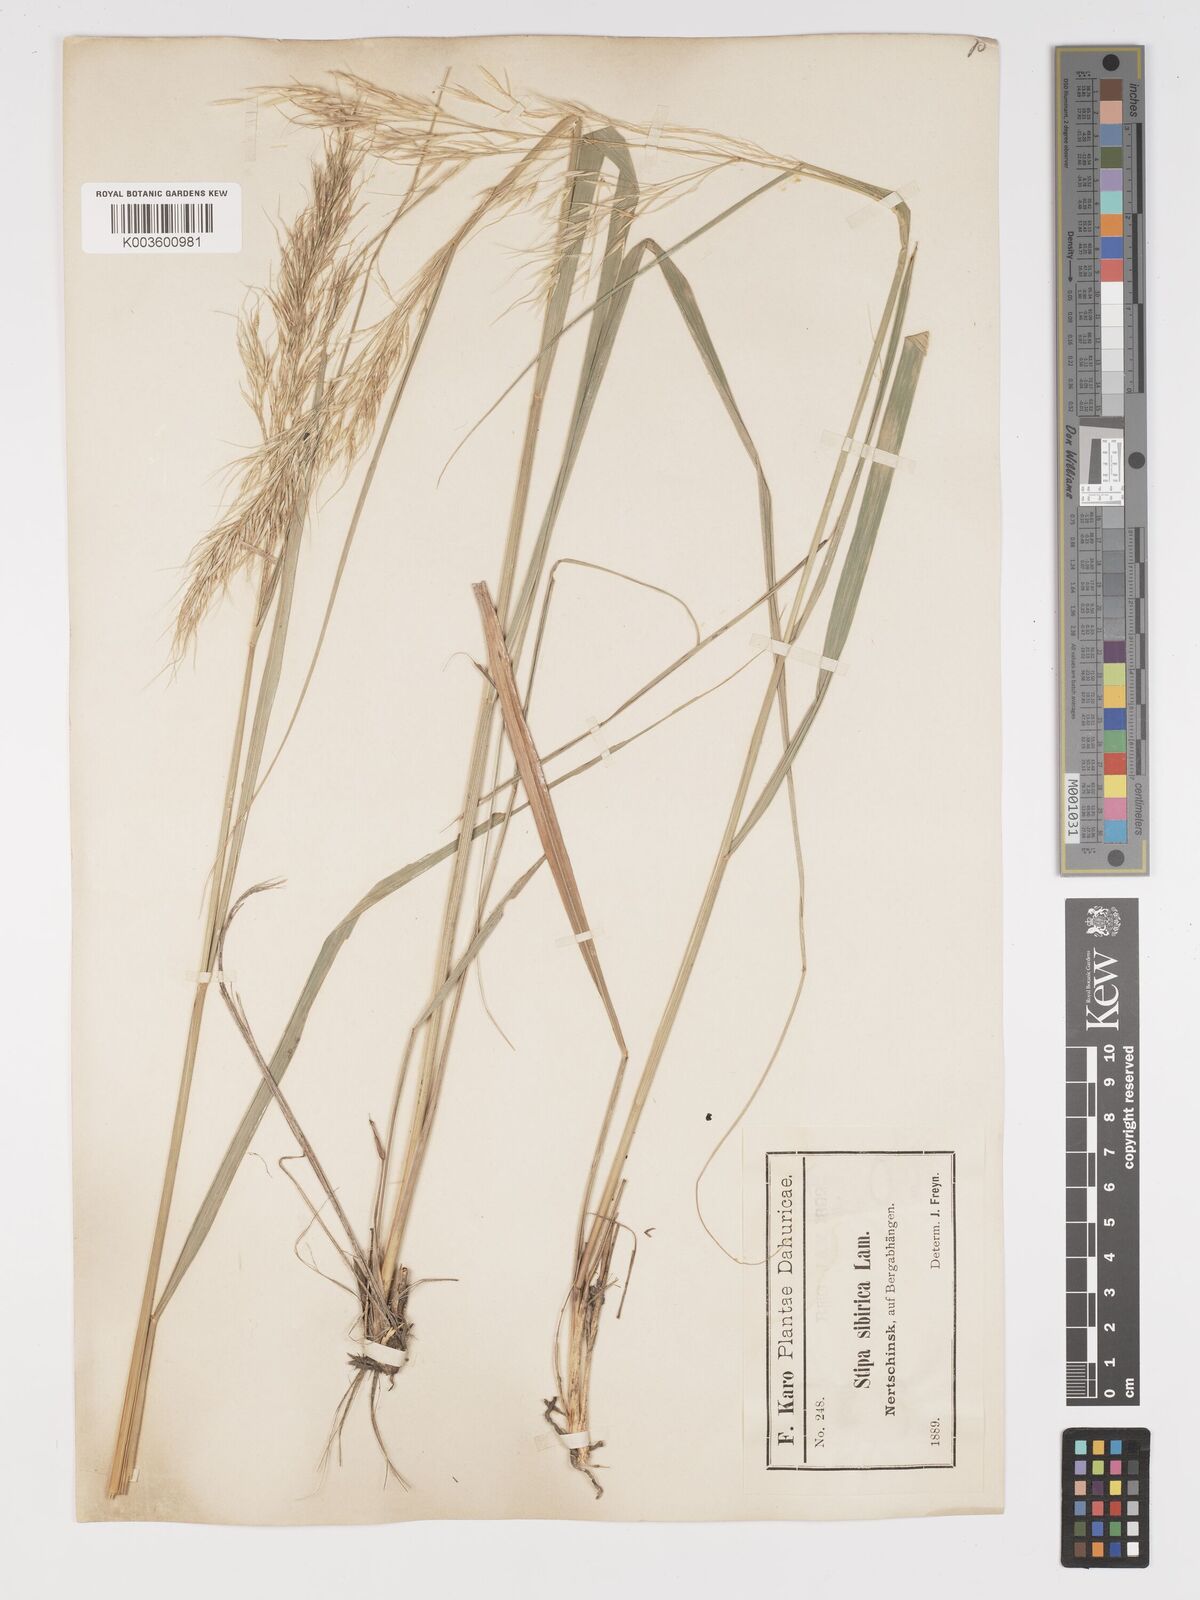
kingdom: Plantae
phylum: Tracheophyta
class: Liliopsida
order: Poales
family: Poaceae
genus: Achnatherum
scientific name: Achnatherum sibiricum
